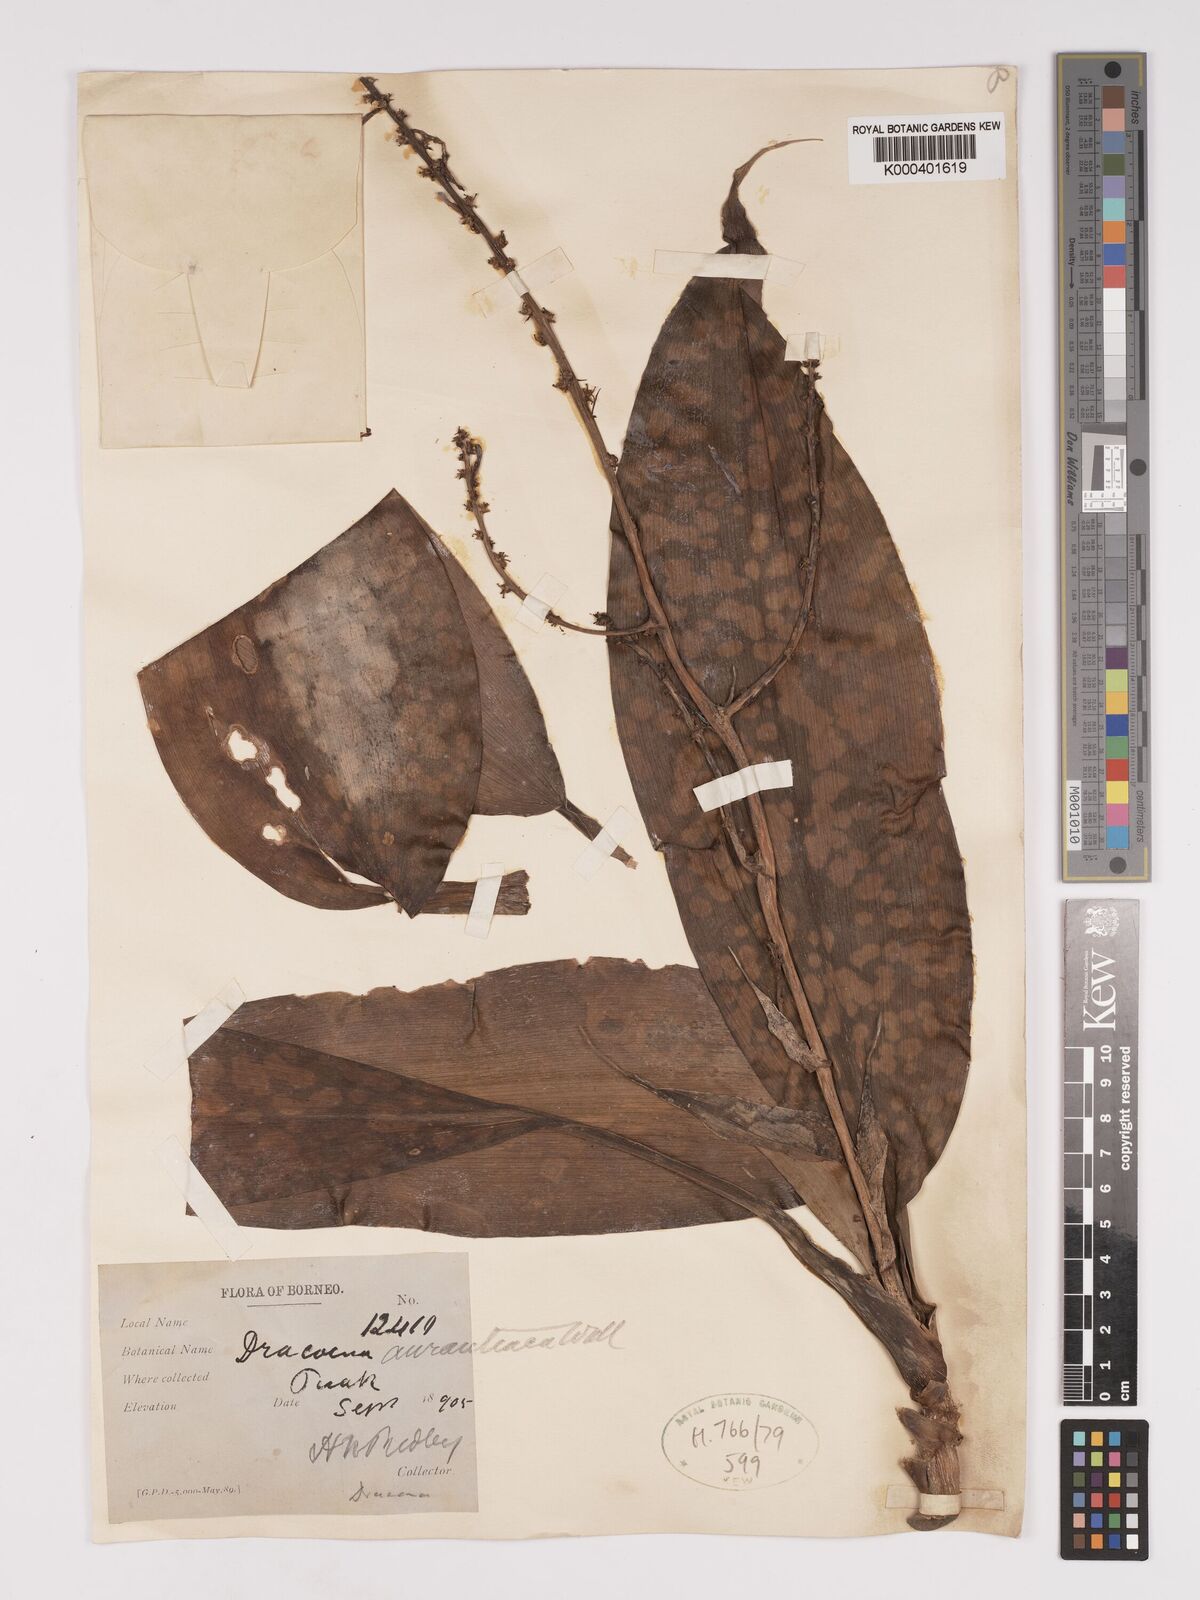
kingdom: Plantae
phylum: Tracheophyta
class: Liliopsida
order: Asparagales
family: Asparagaceae
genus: Dracaena
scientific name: Dracaena
